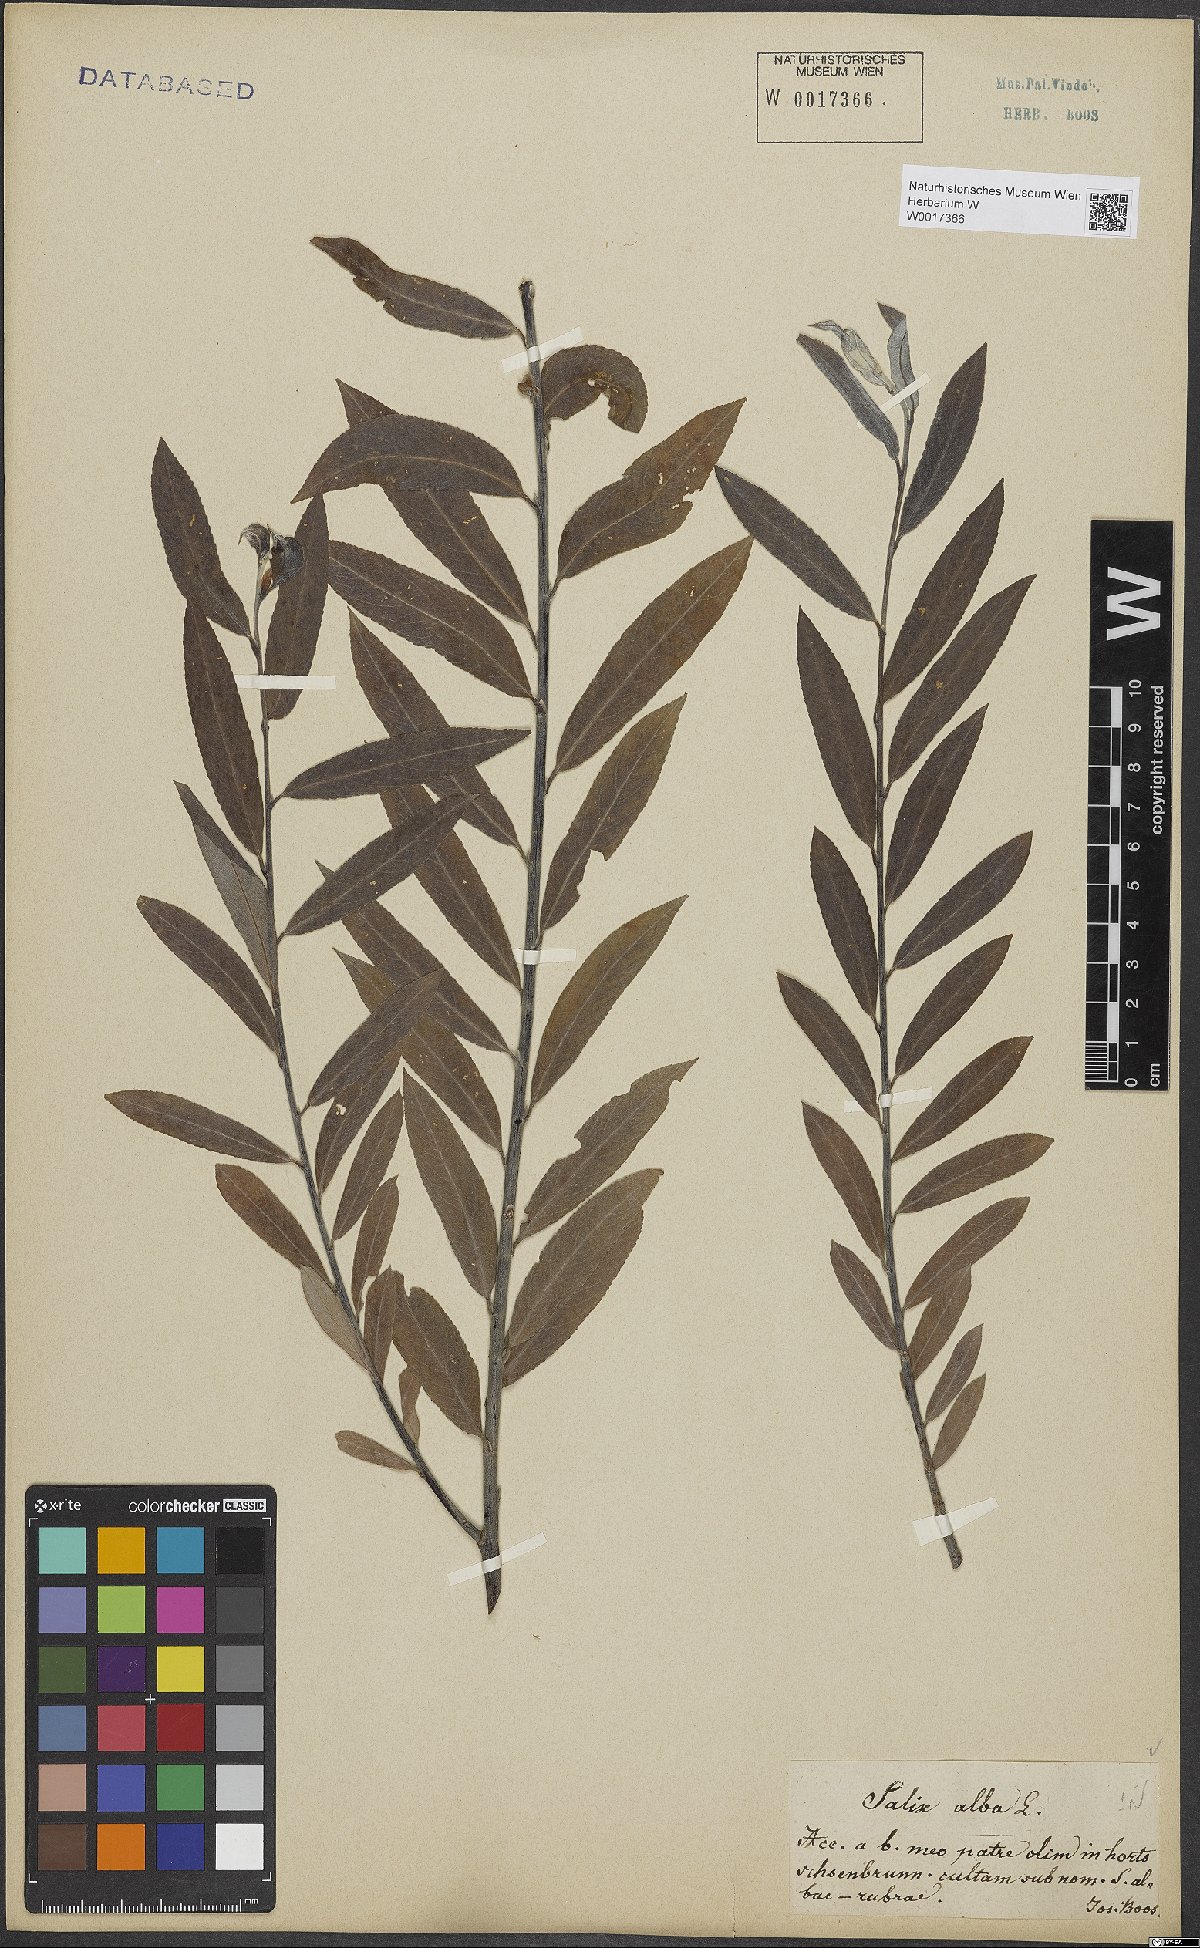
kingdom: Plantae
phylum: Tracheophyta
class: Magnoliopsida
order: Malpighiales
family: Salicaceae
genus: Salix
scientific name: Salix alba
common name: White willow
